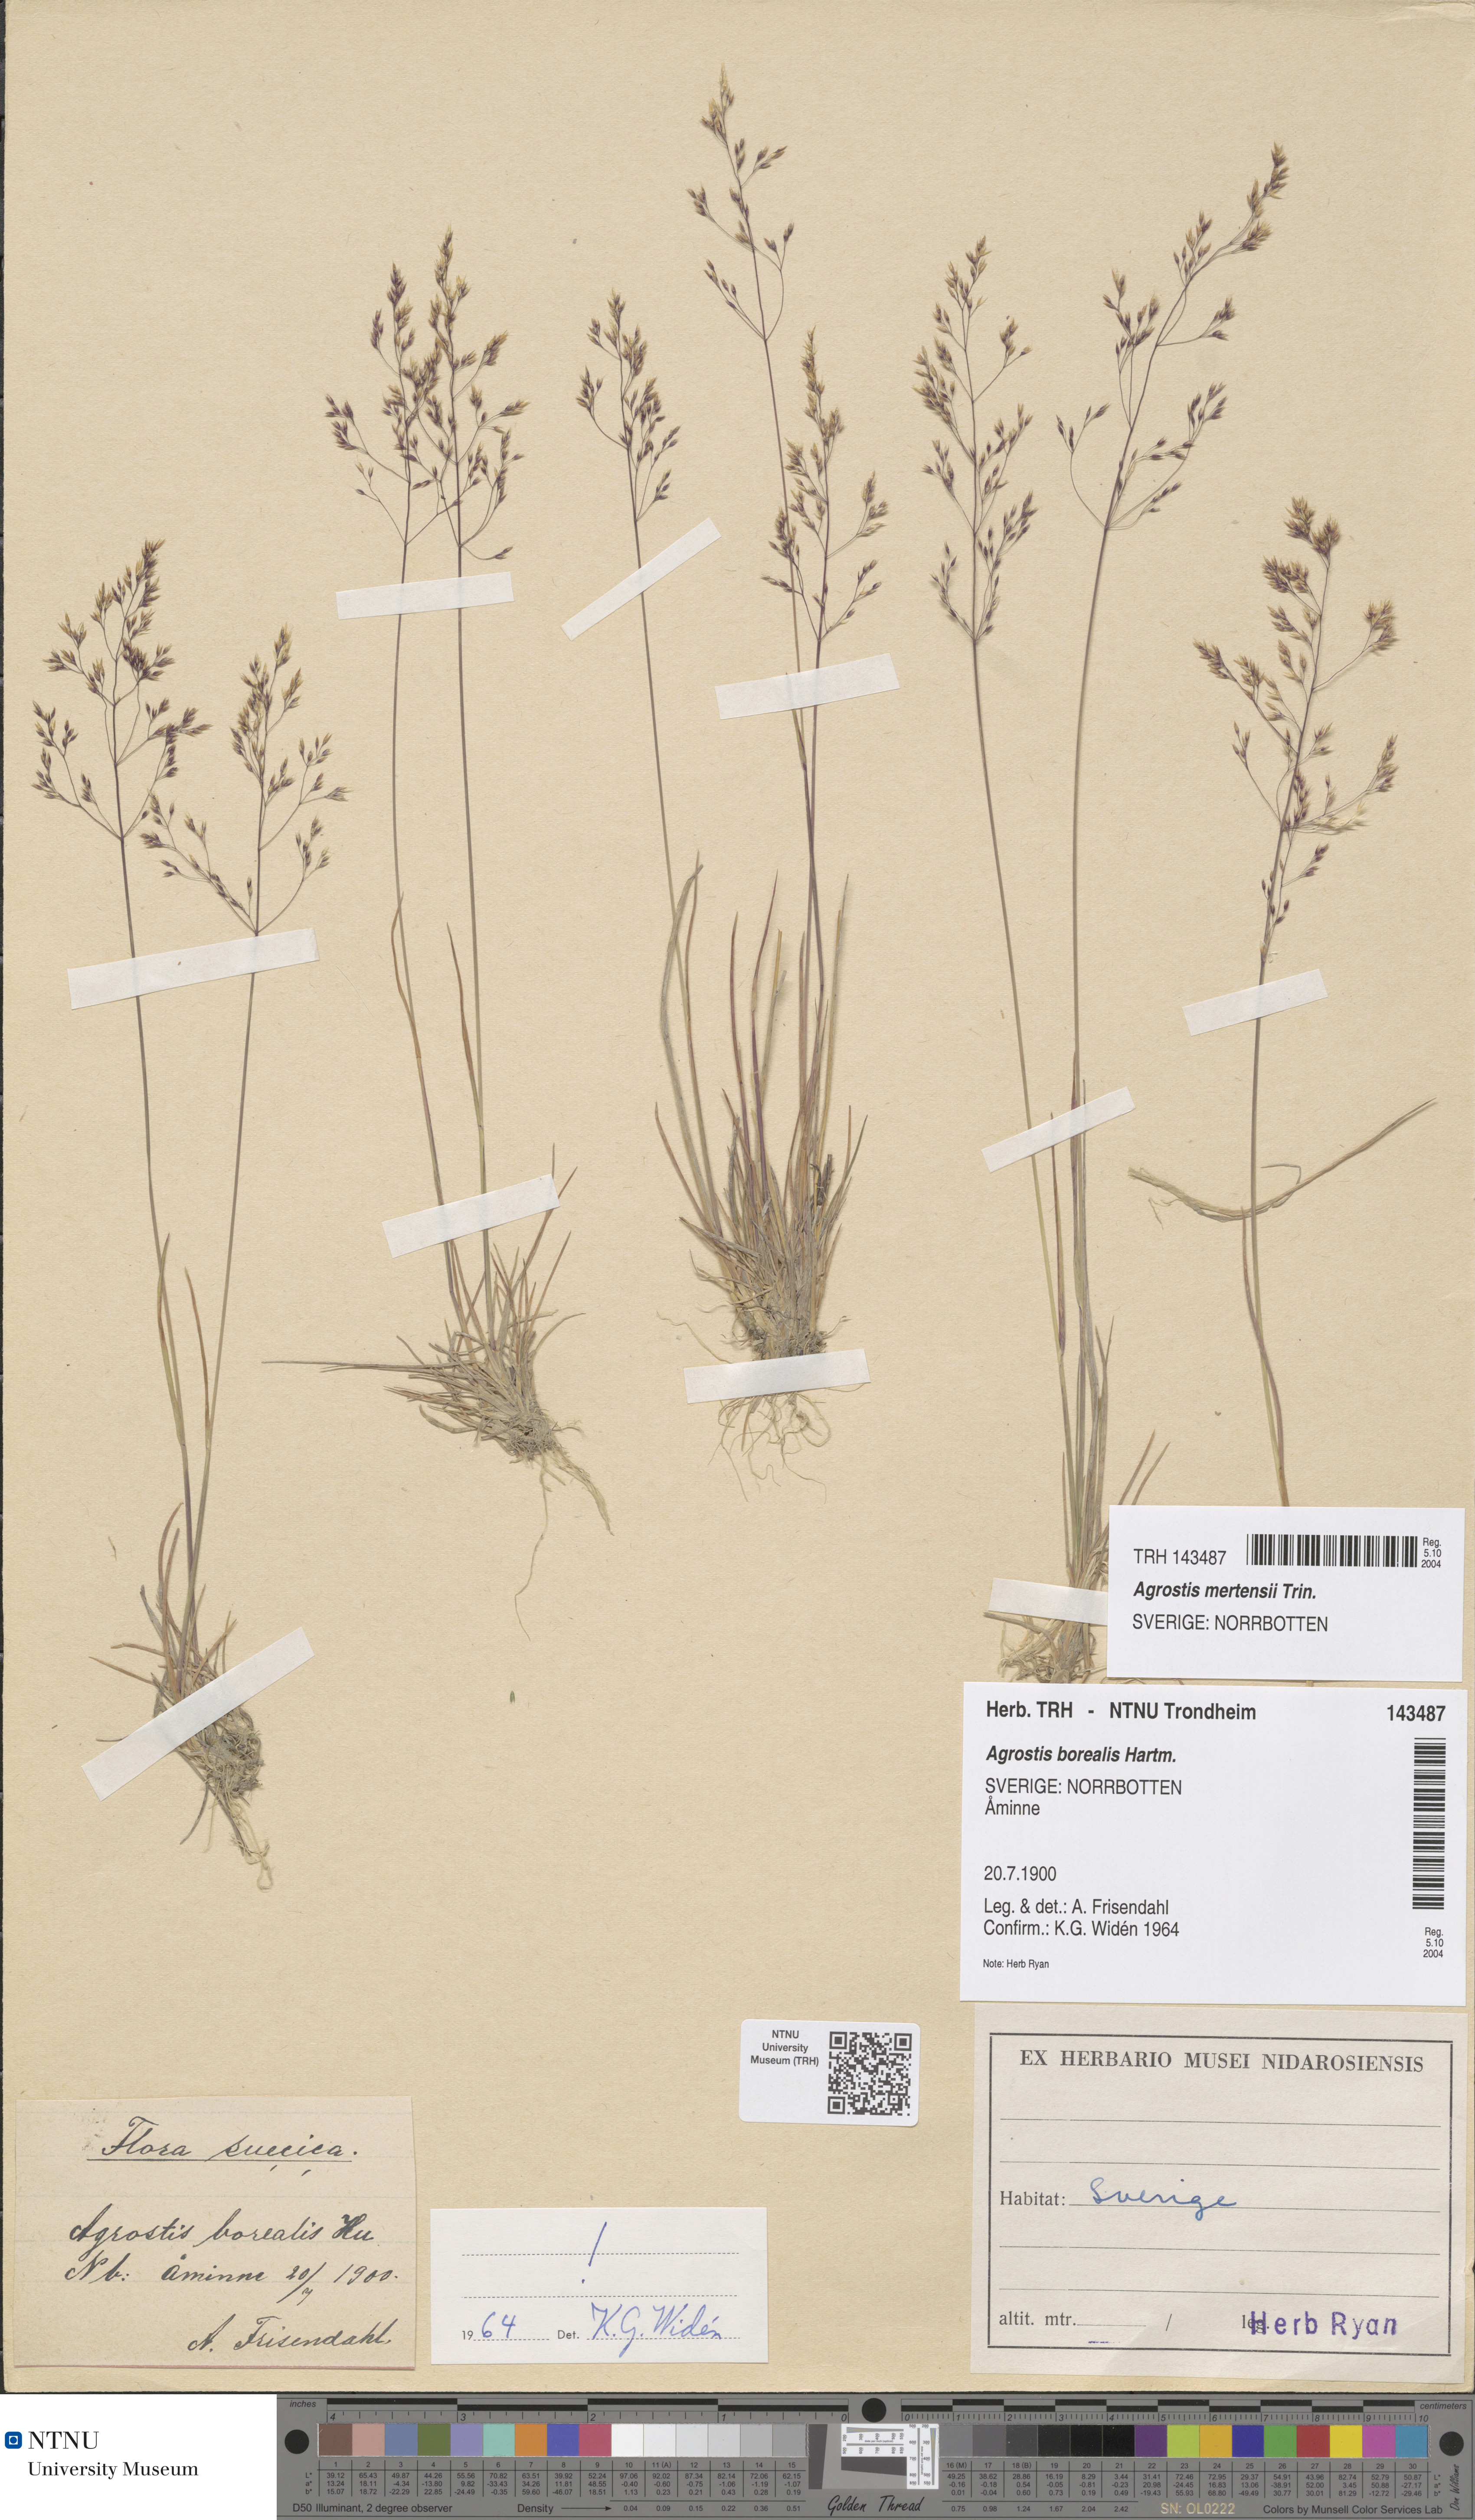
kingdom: Plantae
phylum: Tracheophyta
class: Liliopsida
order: Poales
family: Poaceae
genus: Agrostis
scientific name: Agrostis mertensii
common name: Northern bent
